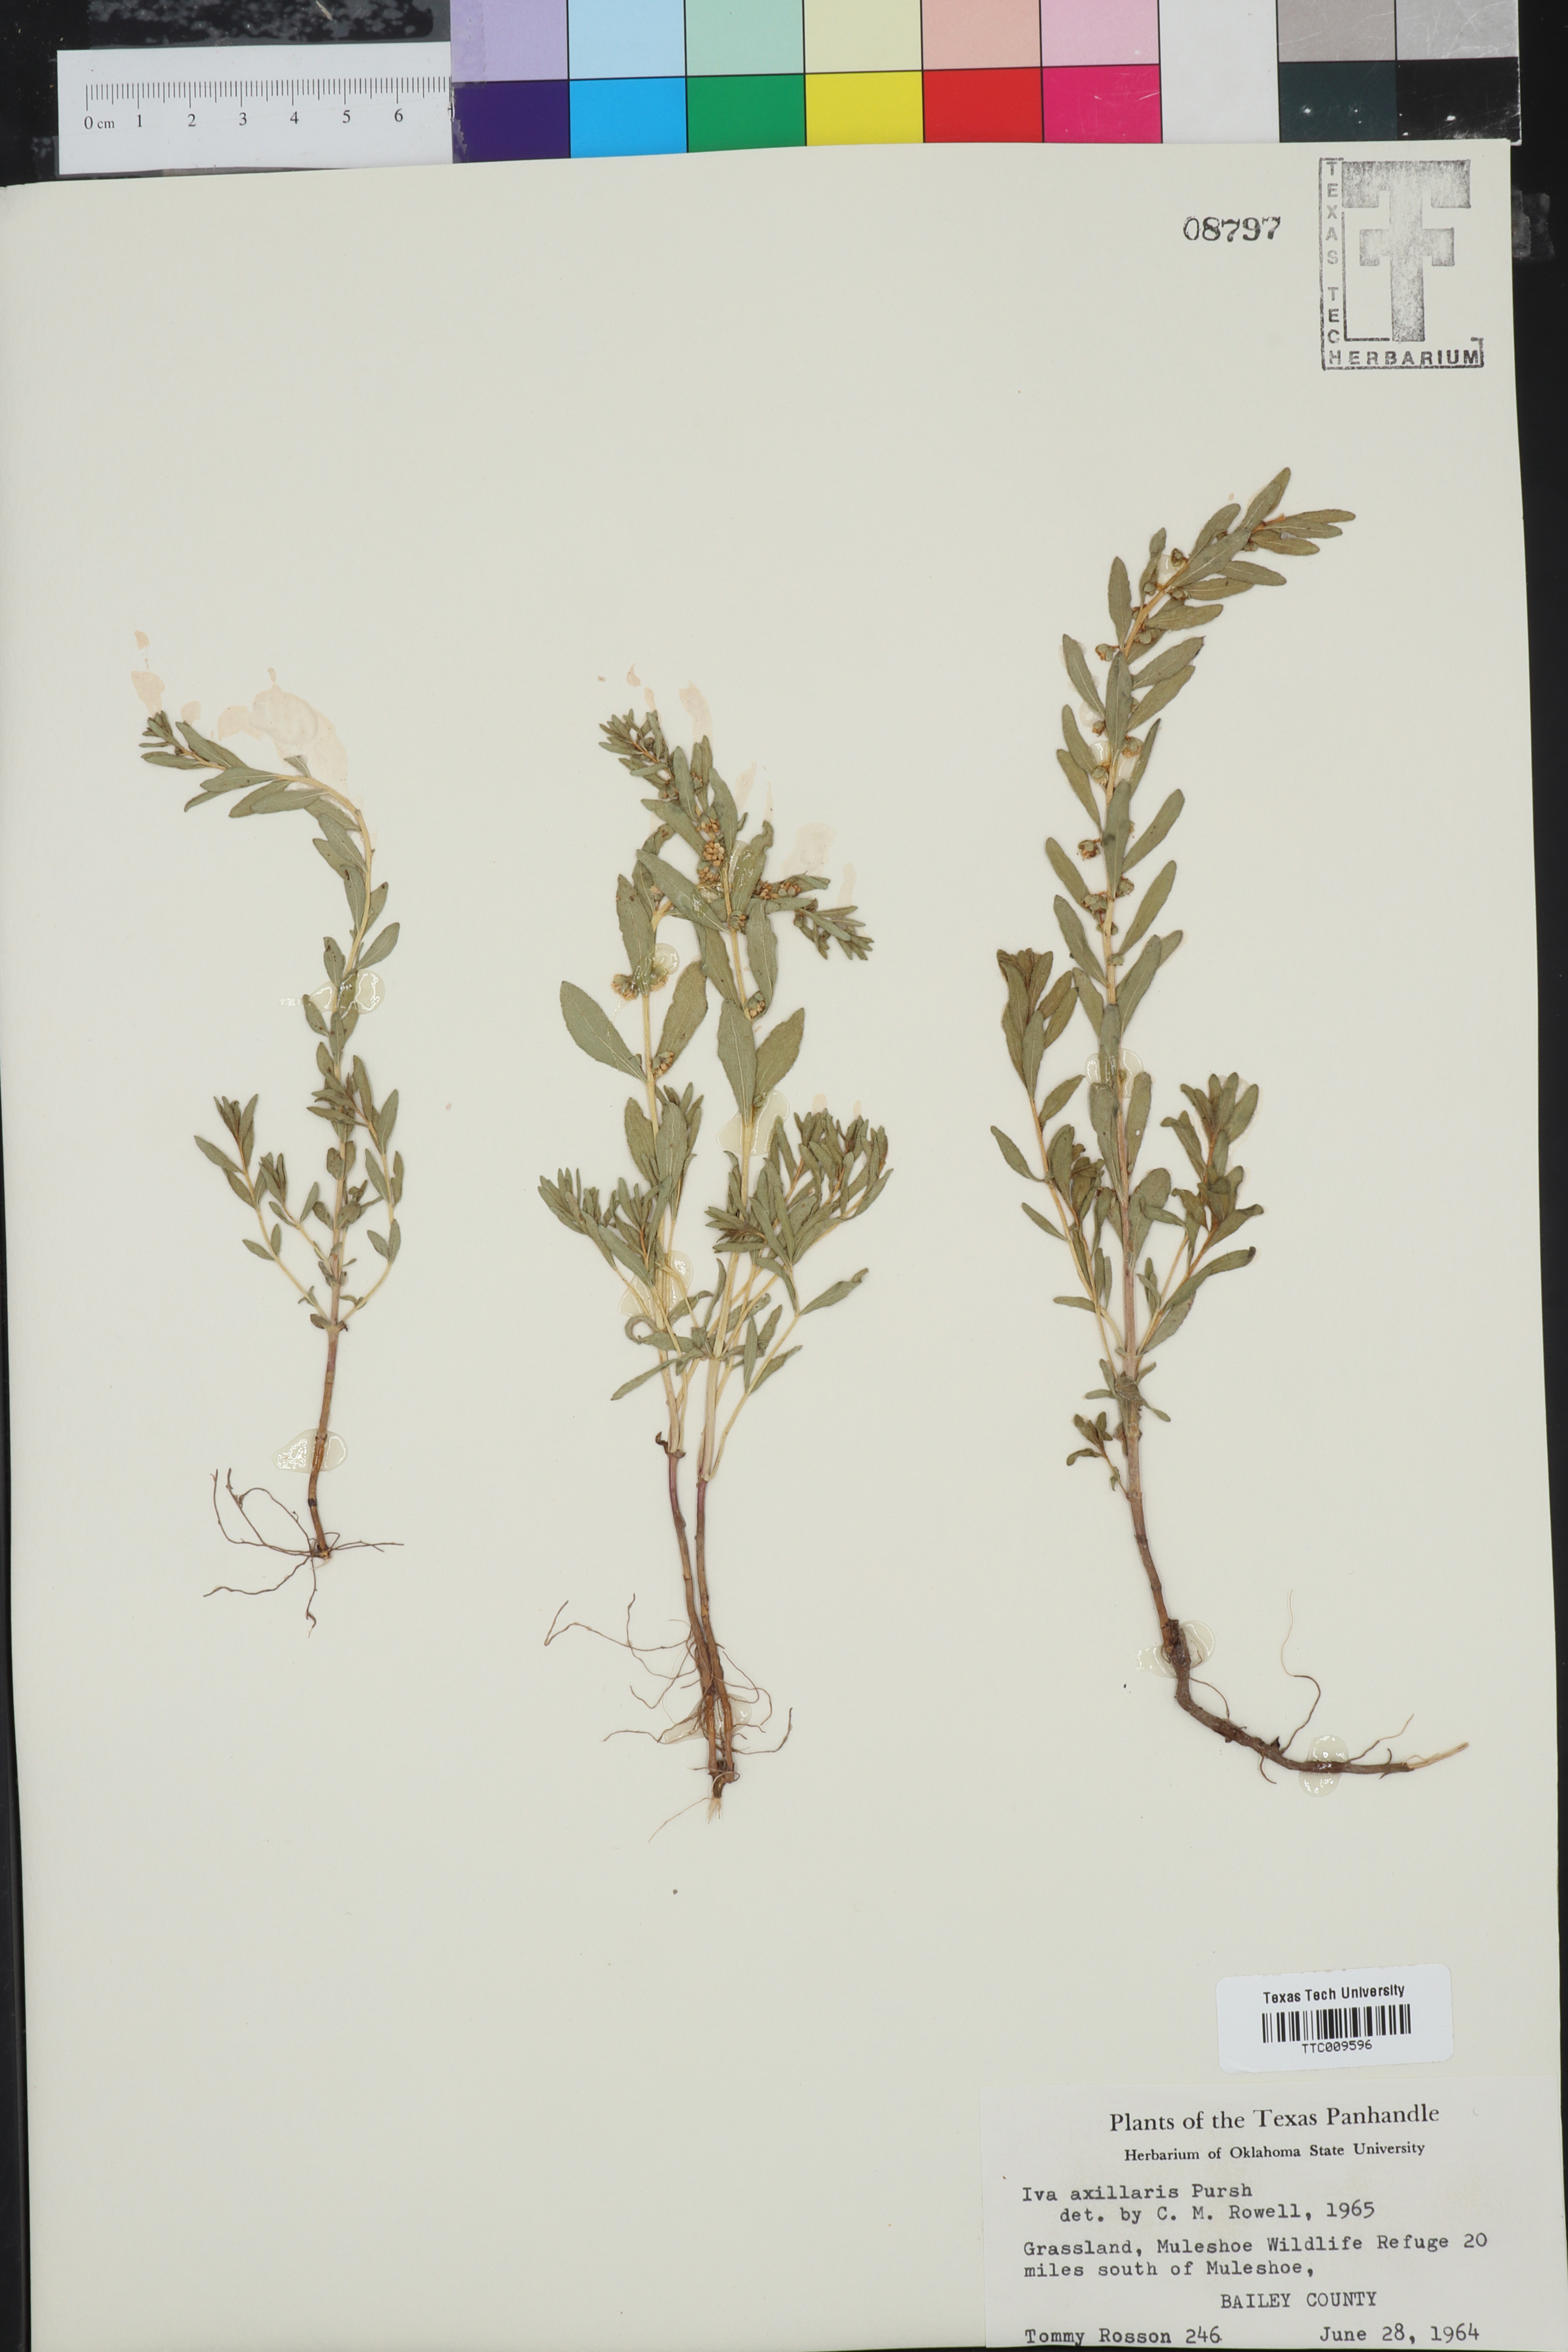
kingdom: Plantae
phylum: Tracheophyta
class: Magnoliopsida
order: Asterales
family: Asteraceae
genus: Iva
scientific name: Iva axillaris
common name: Poverty sumpweed
